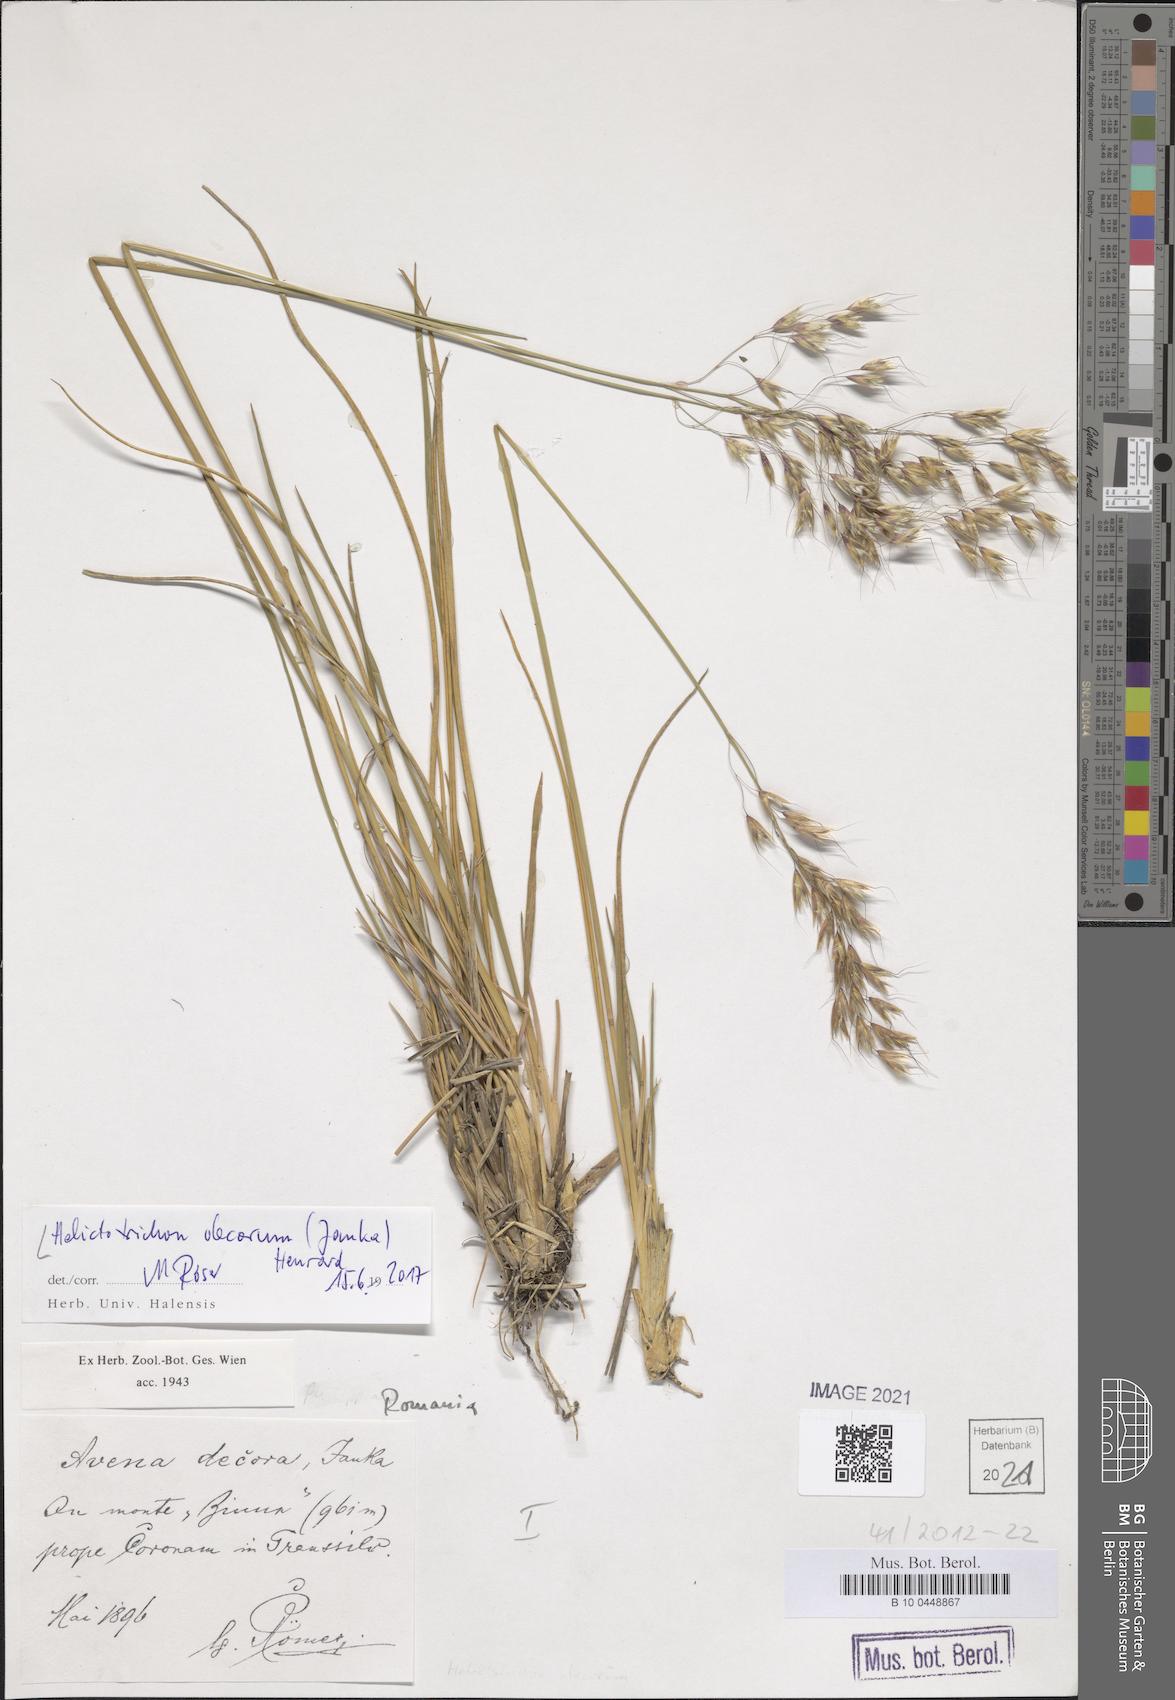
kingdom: Plantae
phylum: Tracheophyta
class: Liliopsida
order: Poales
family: Poaceae
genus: Helictotrichon
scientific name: Helictotrichon decorum
